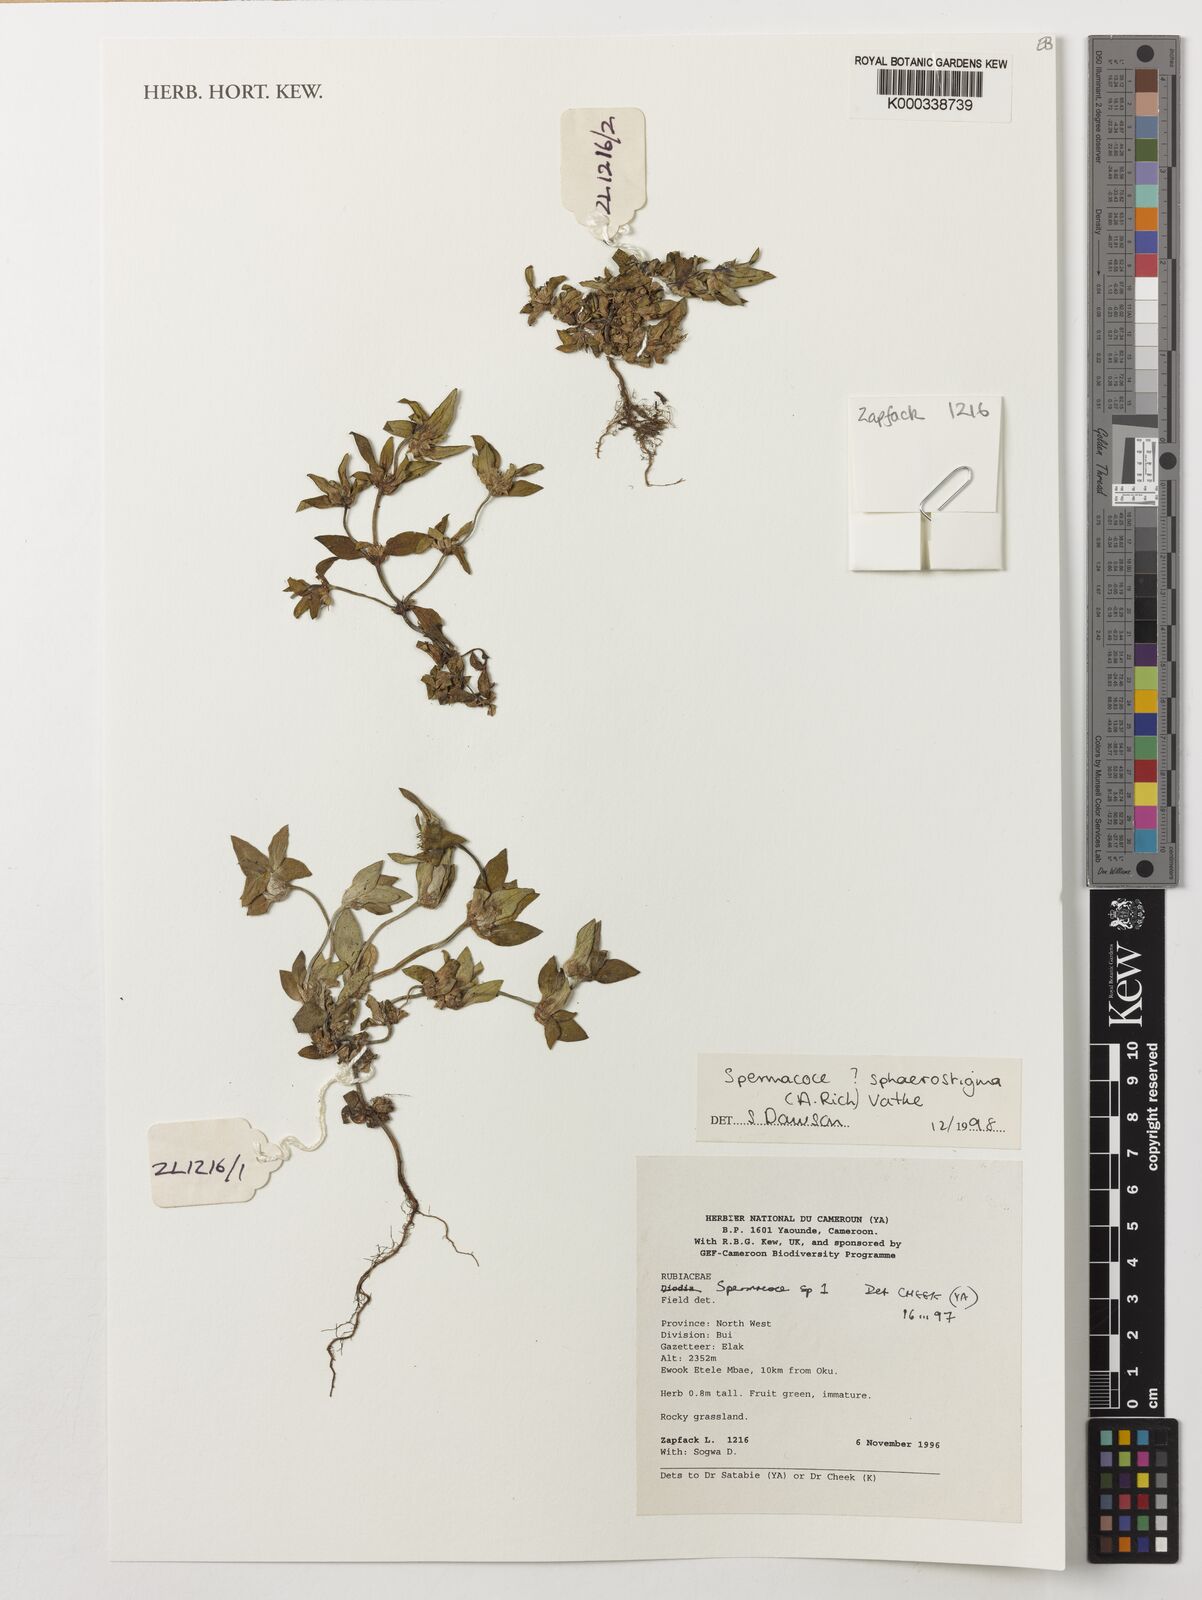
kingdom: Plantae
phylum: Tracheophyta
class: Magnoliopsida
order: Gentianales
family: Rubiaceae
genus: Spermacoce
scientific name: Spermacoce
